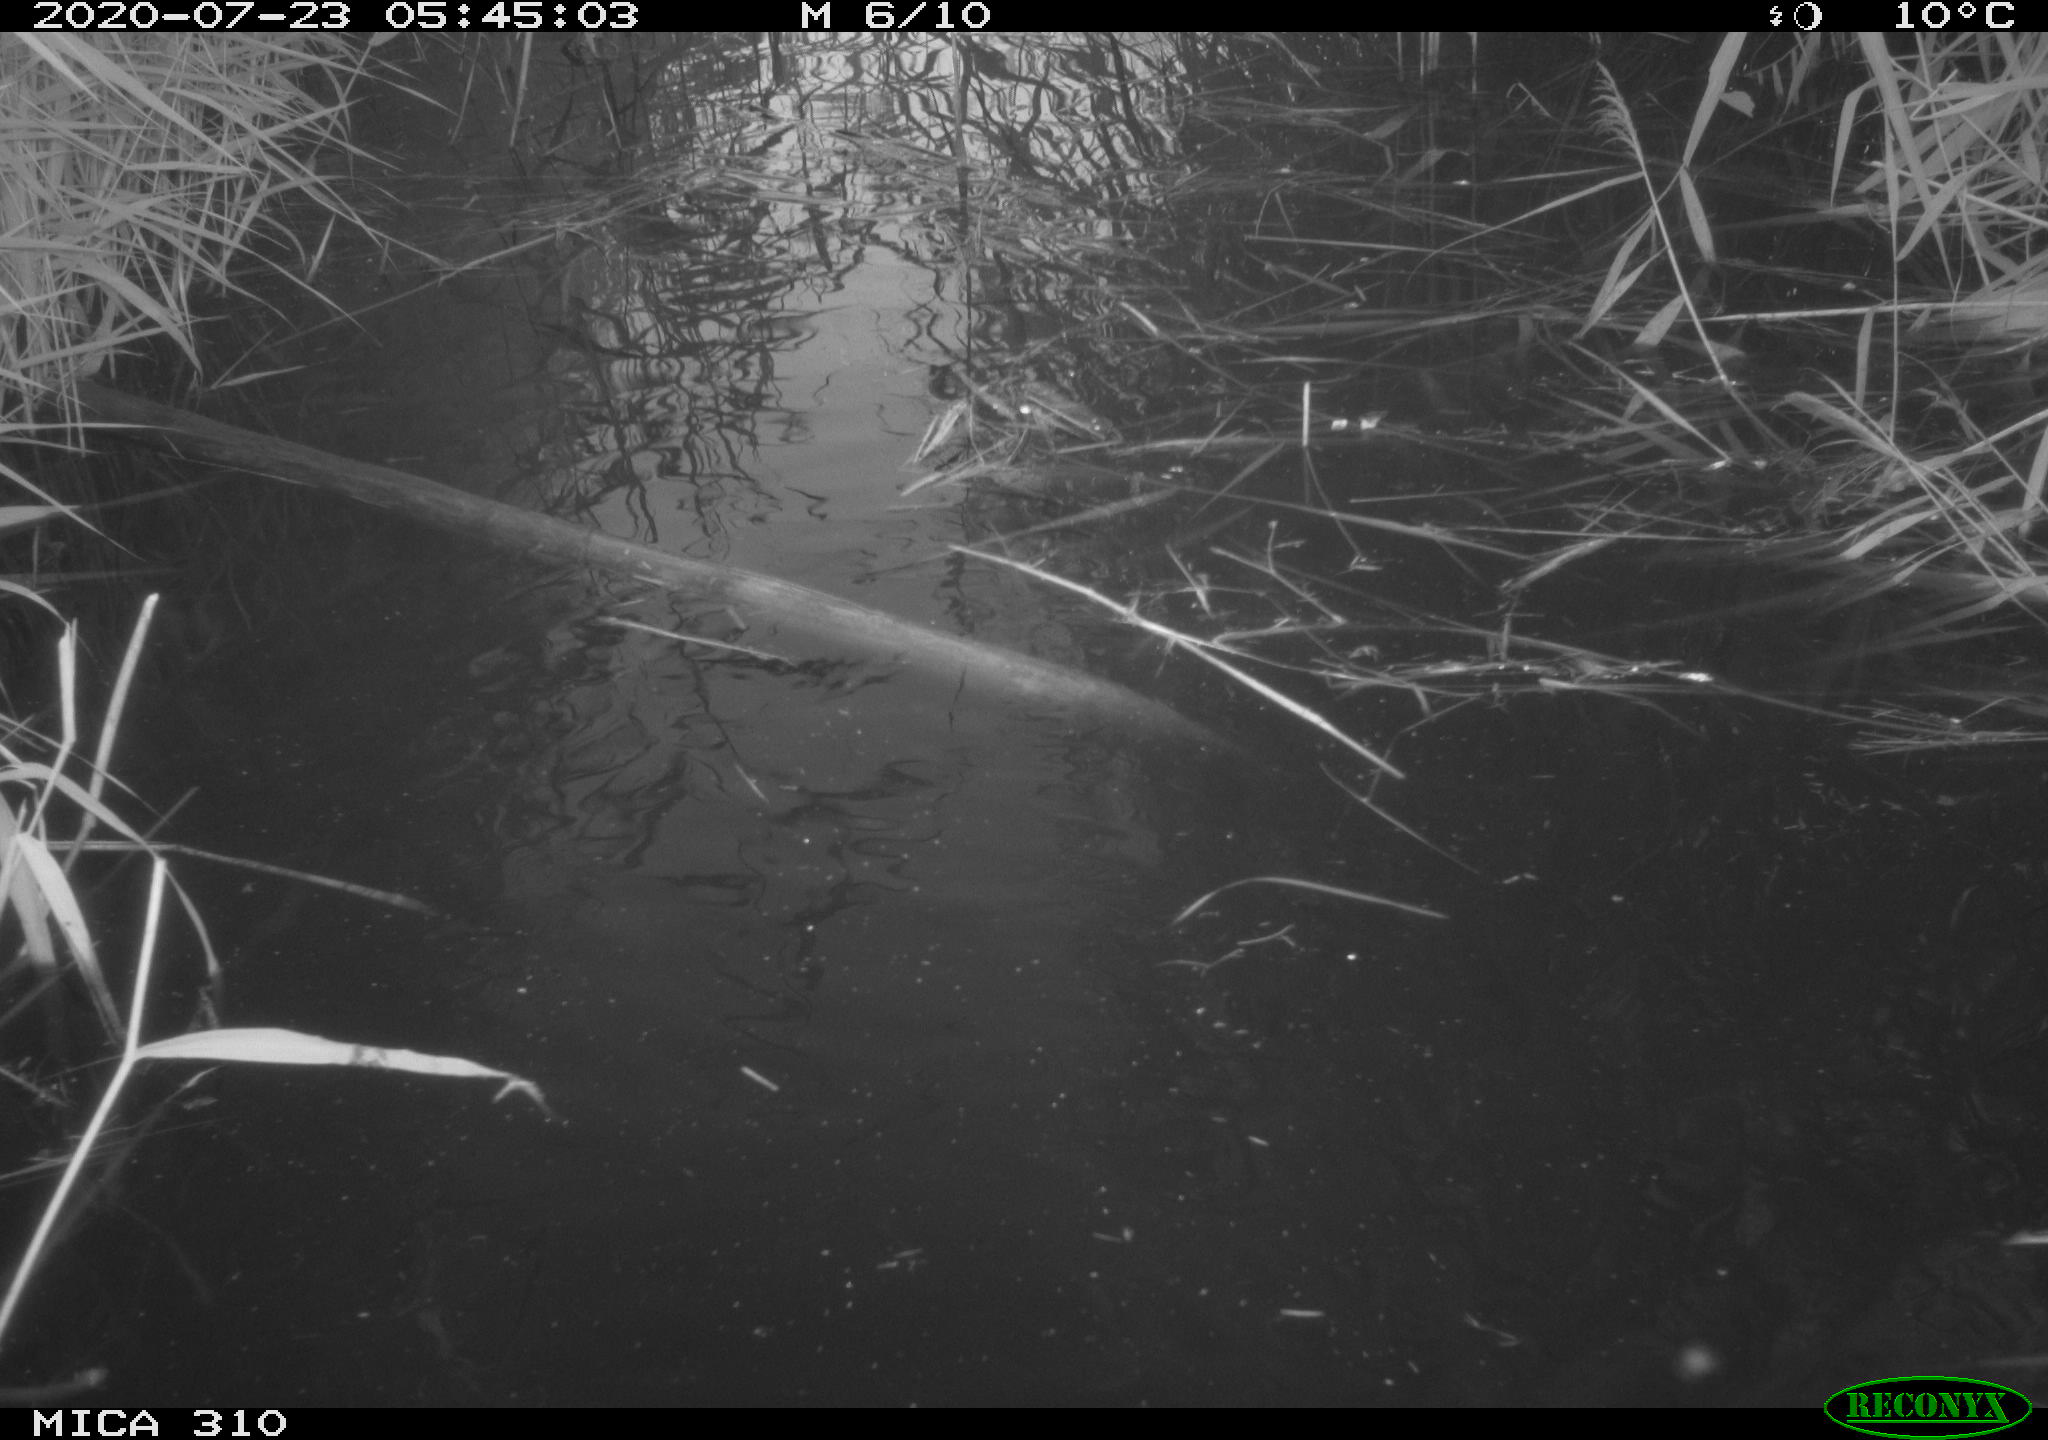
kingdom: Animalia
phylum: Chordata
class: Aves
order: Gruiformes
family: Rallidae
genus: Fulica
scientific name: Fulica atra
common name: Eurasian coot
